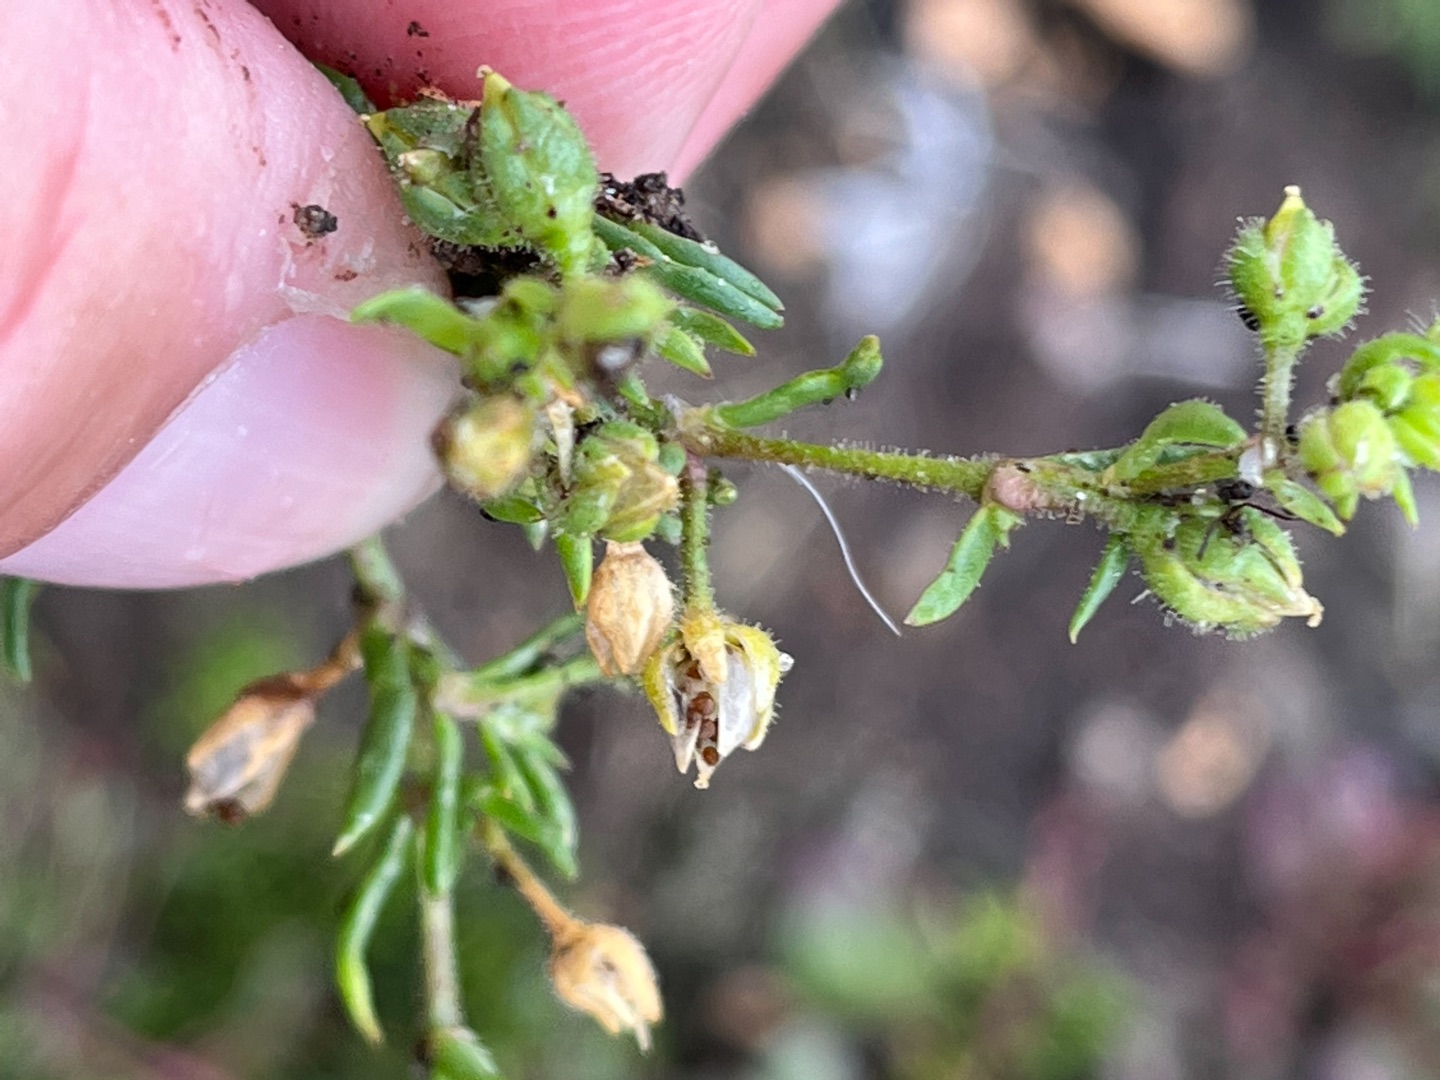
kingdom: Plantae
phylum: Tracheophyta
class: Magnoliopsida
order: Caryophyllales
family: Caryophyllaceae
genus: Spergularia
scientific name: Spergularia marina
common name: Kødet hindeknæ
